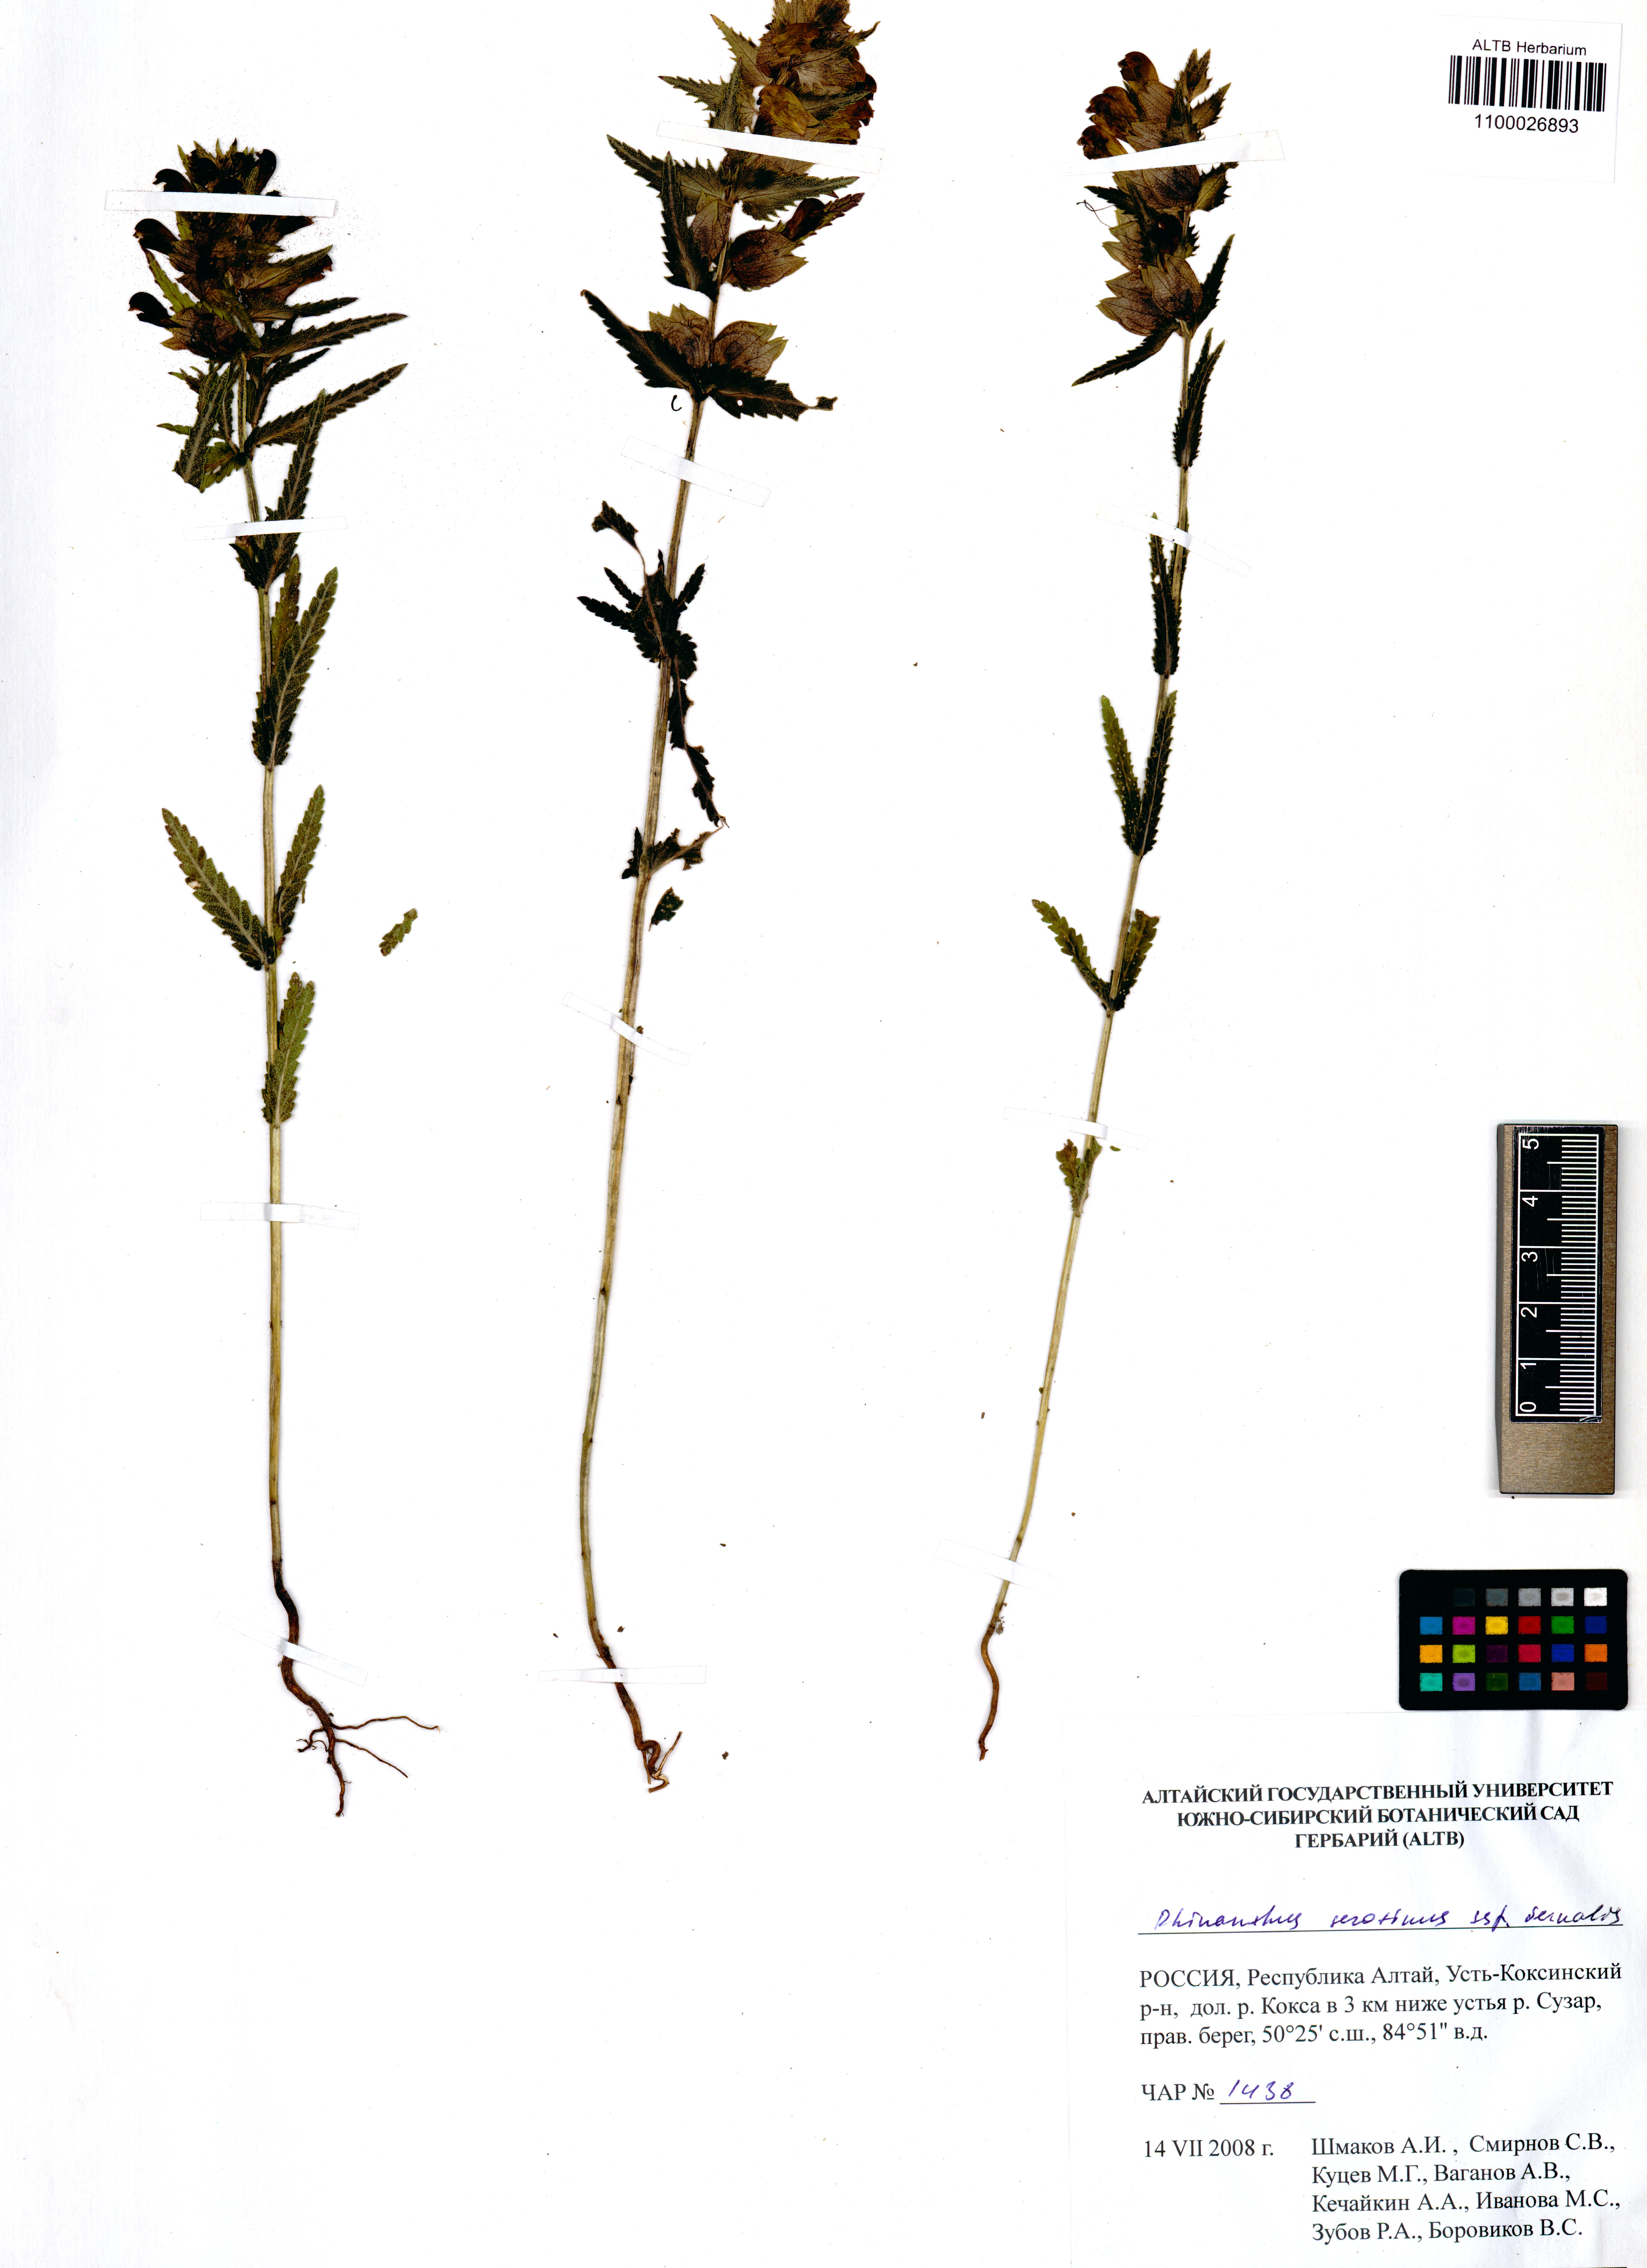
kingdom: Plantae
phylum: Tracheophyta
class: Magnoliopsida
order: Lamiales
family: Orobanchaceae
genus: Rhinanthus
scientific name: Rhinanthus
